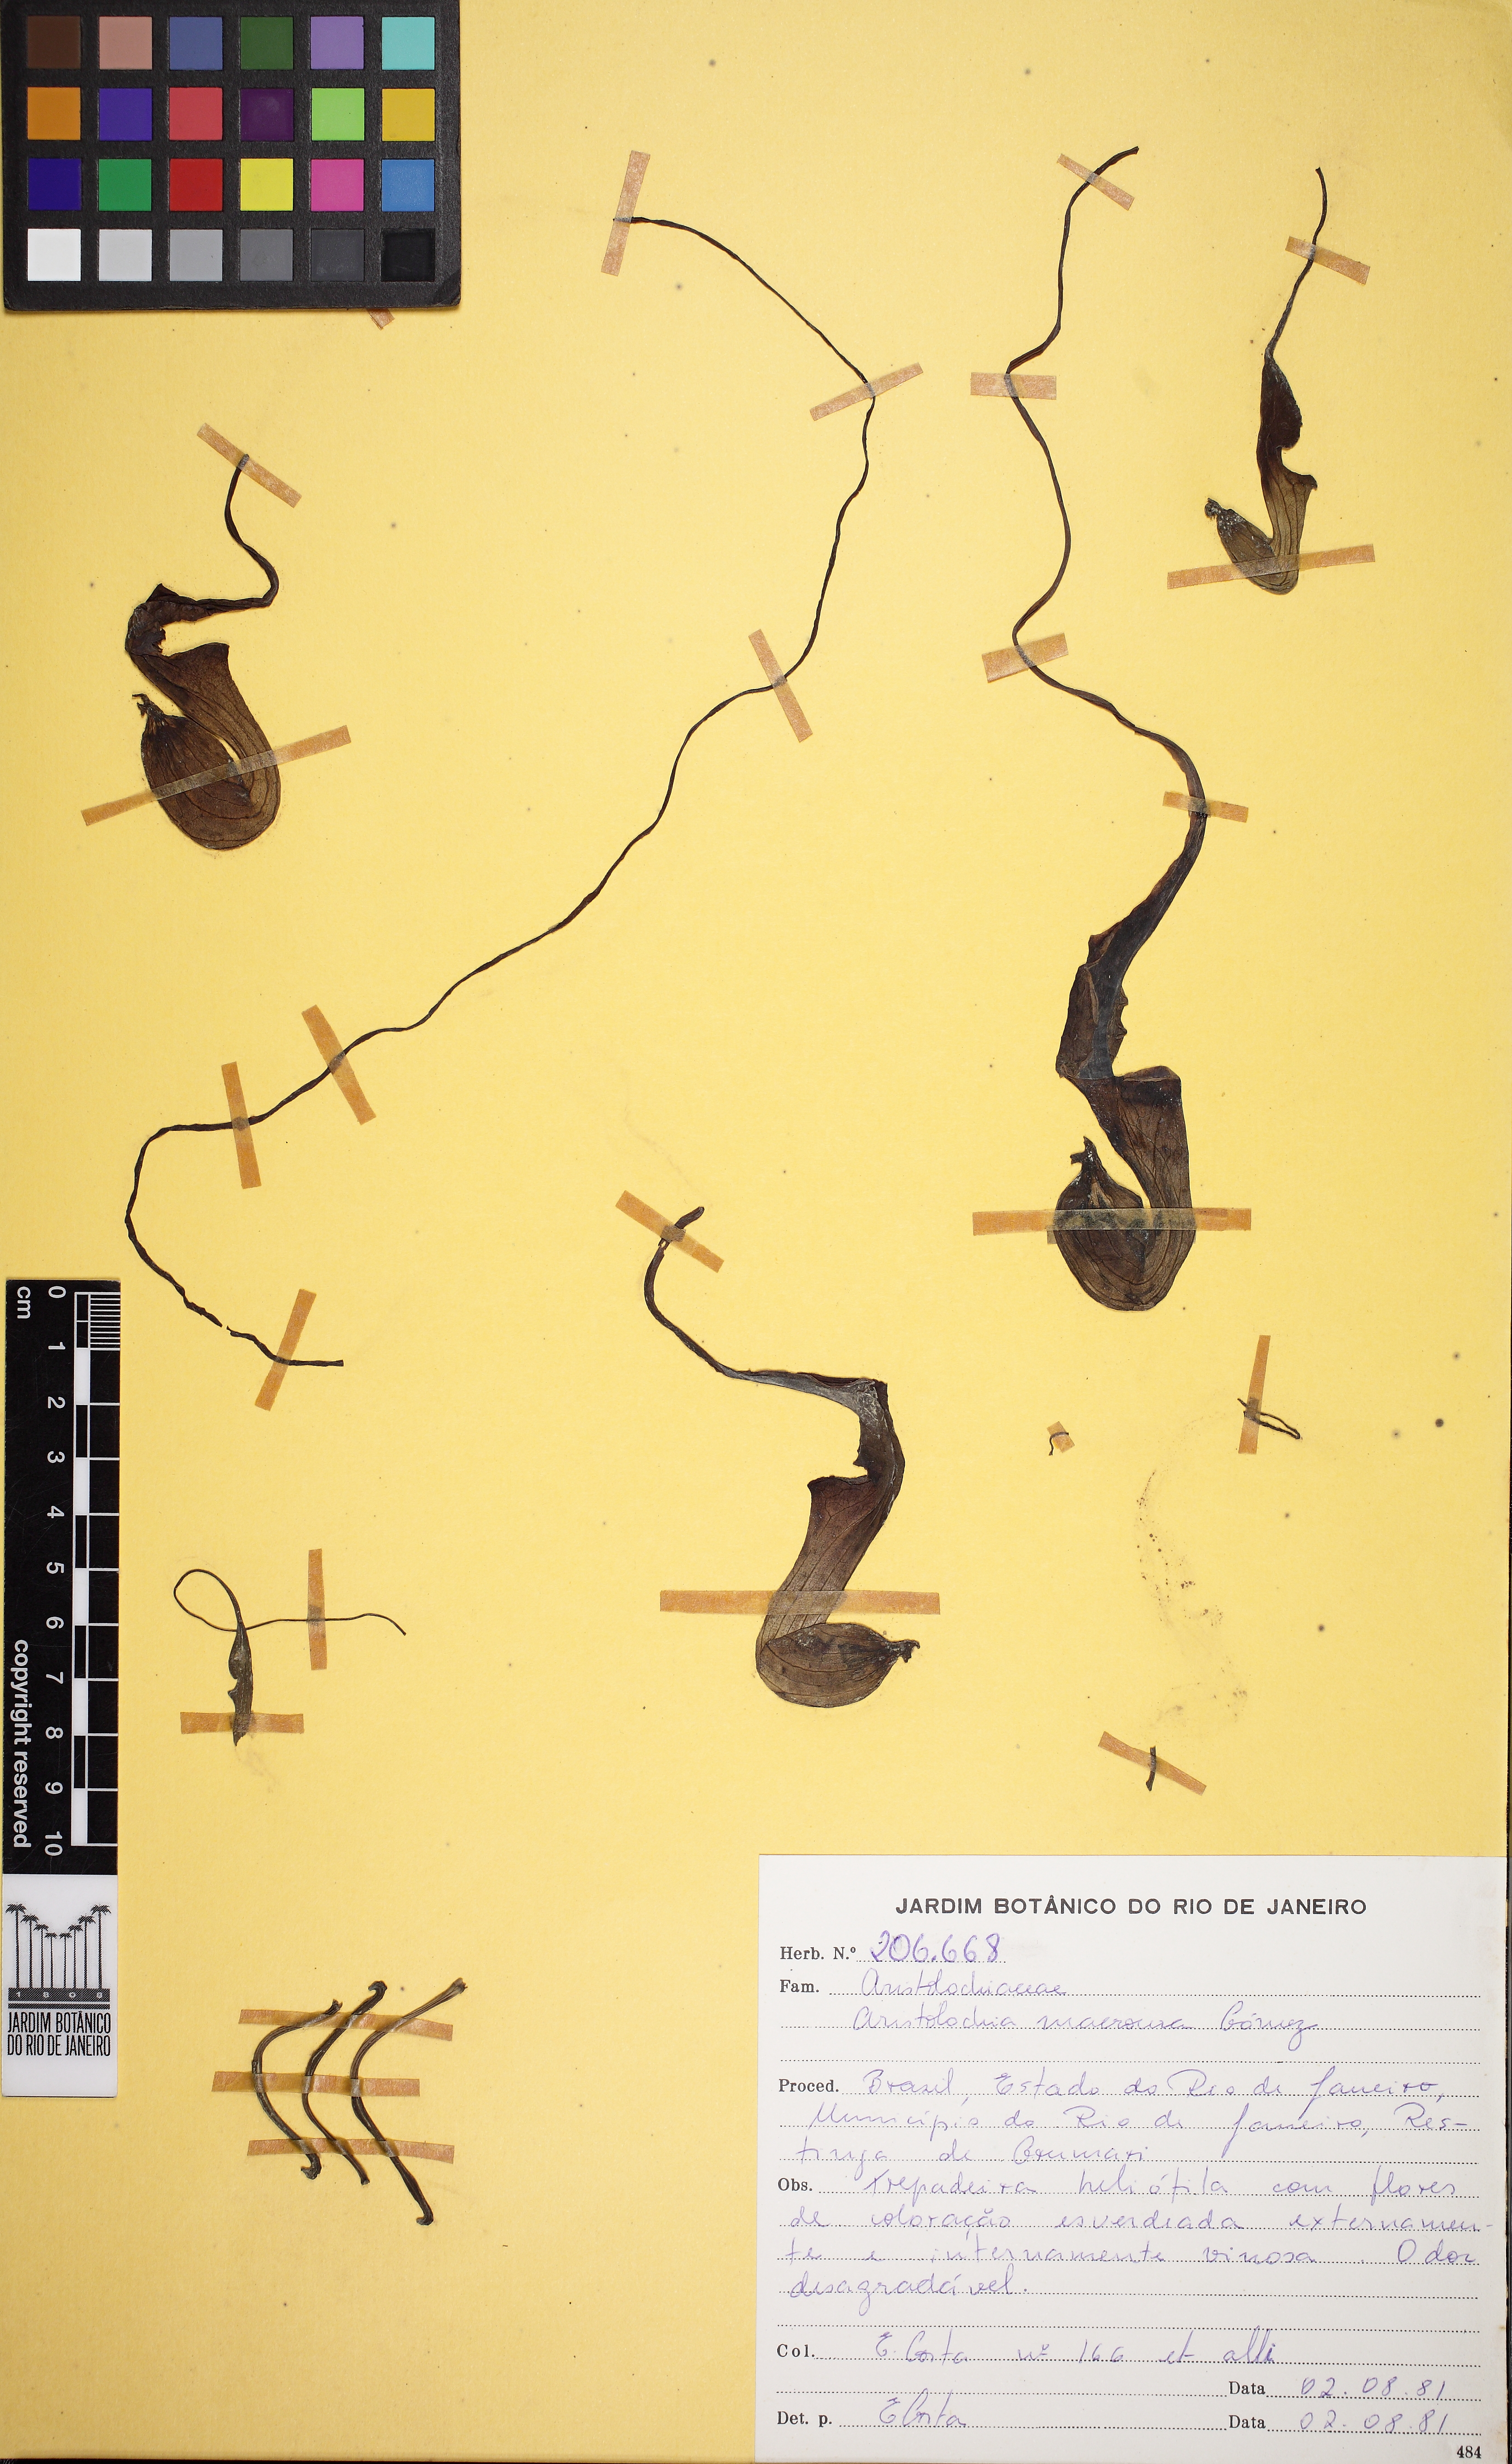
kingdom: Plantae
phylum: Tracheophyta
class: Magnoliopsida
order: Piperales
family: Aristolochiaceae
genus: Aristolochia
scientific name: Aristolochia trilobata
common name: Dutchman's pipe
